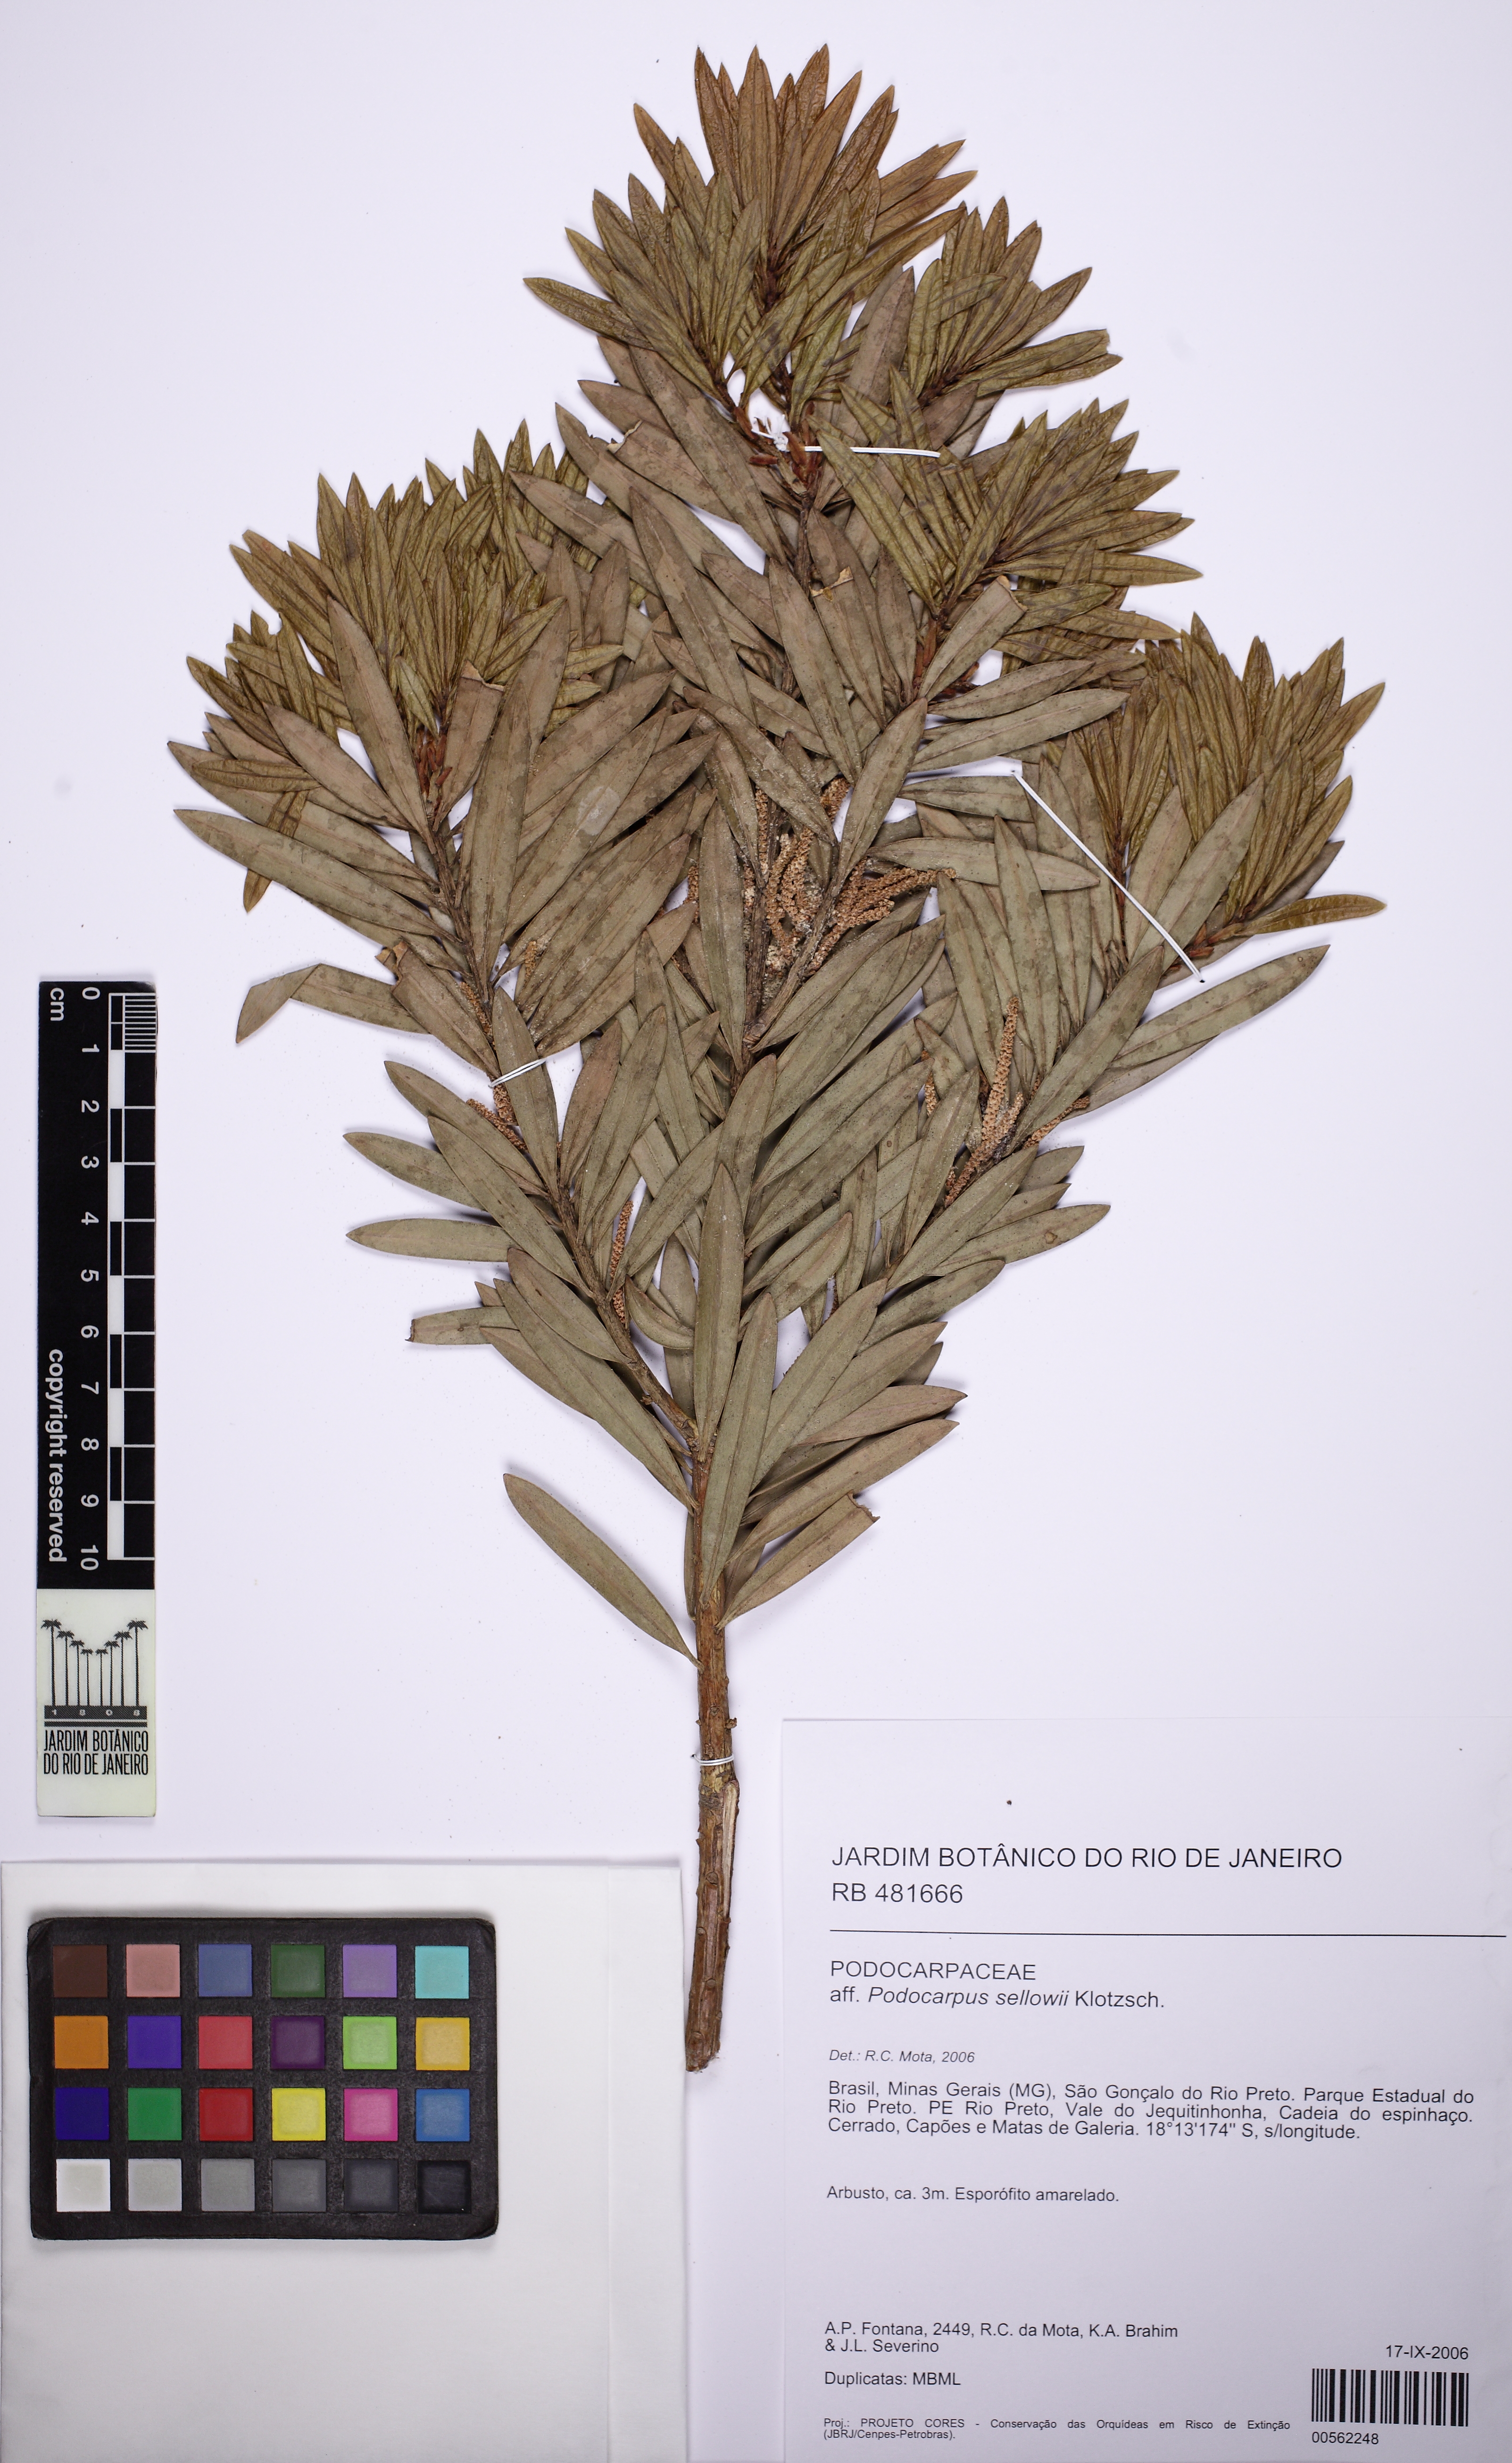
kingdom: Plantae
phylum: Tracheophyta
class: Pinopsida
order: Pinales
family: Podocarpaceae
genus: Podocarpus
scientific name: Podocarpus transiens
